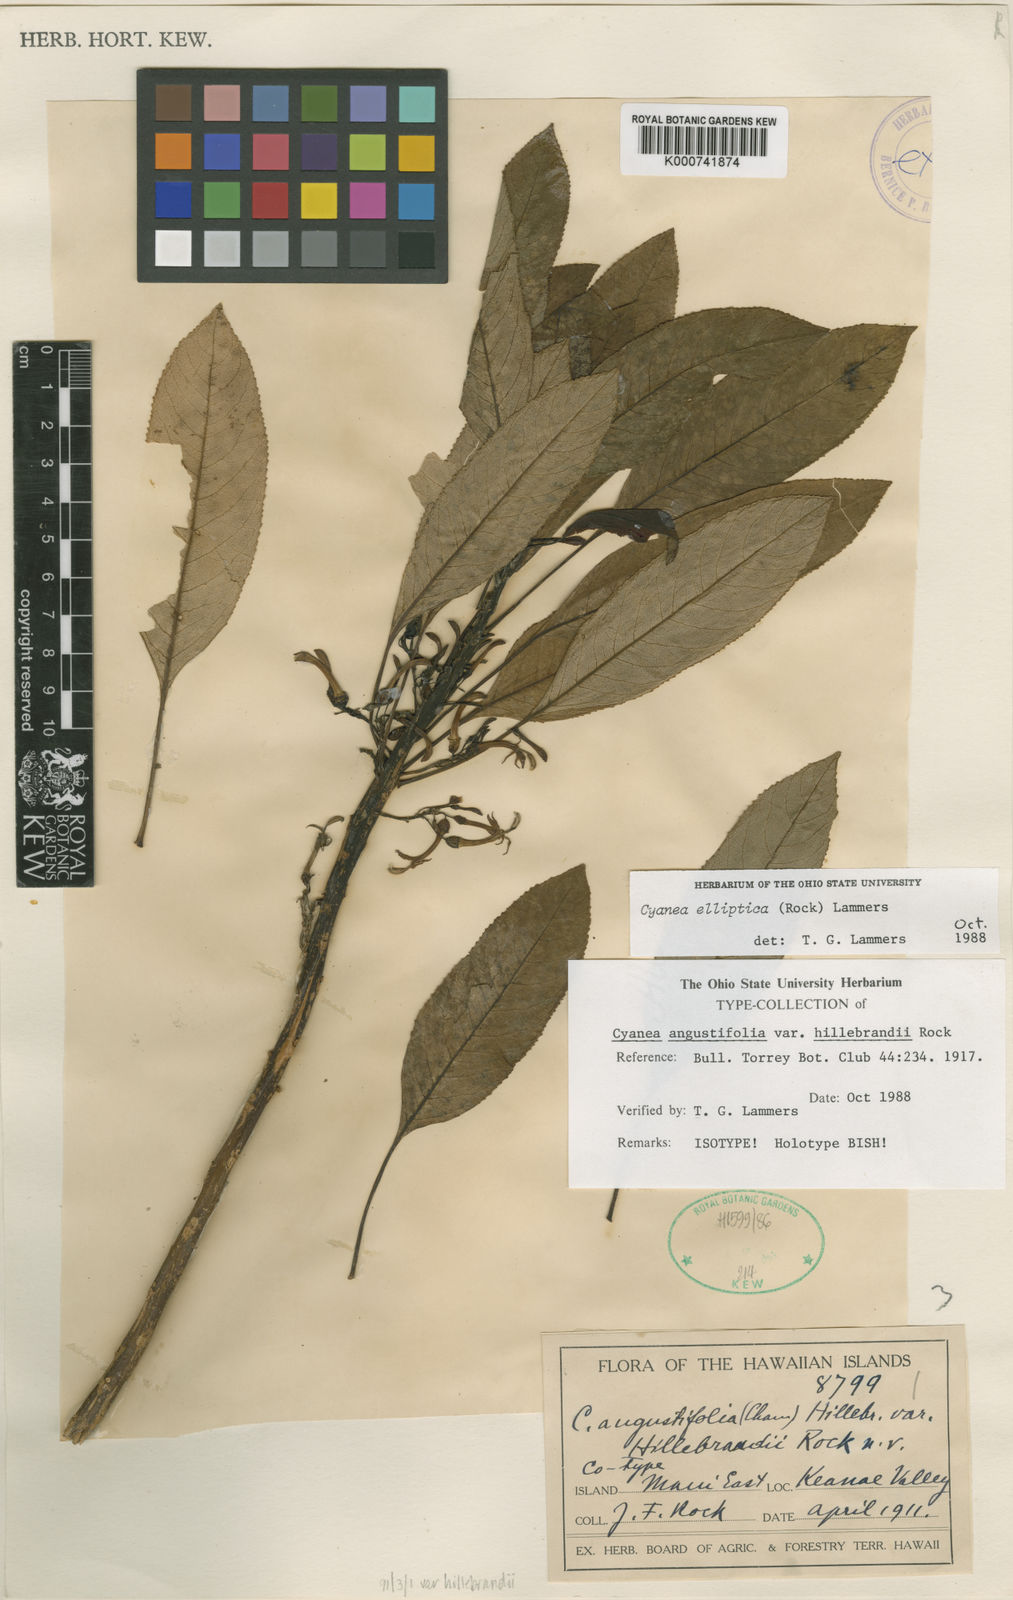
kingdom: Plantae
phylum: Tracheophyta
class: Magnoliopsida
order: Asterales
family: Campanulaceae
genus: Cyanea
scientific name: Cyanea elliptica
